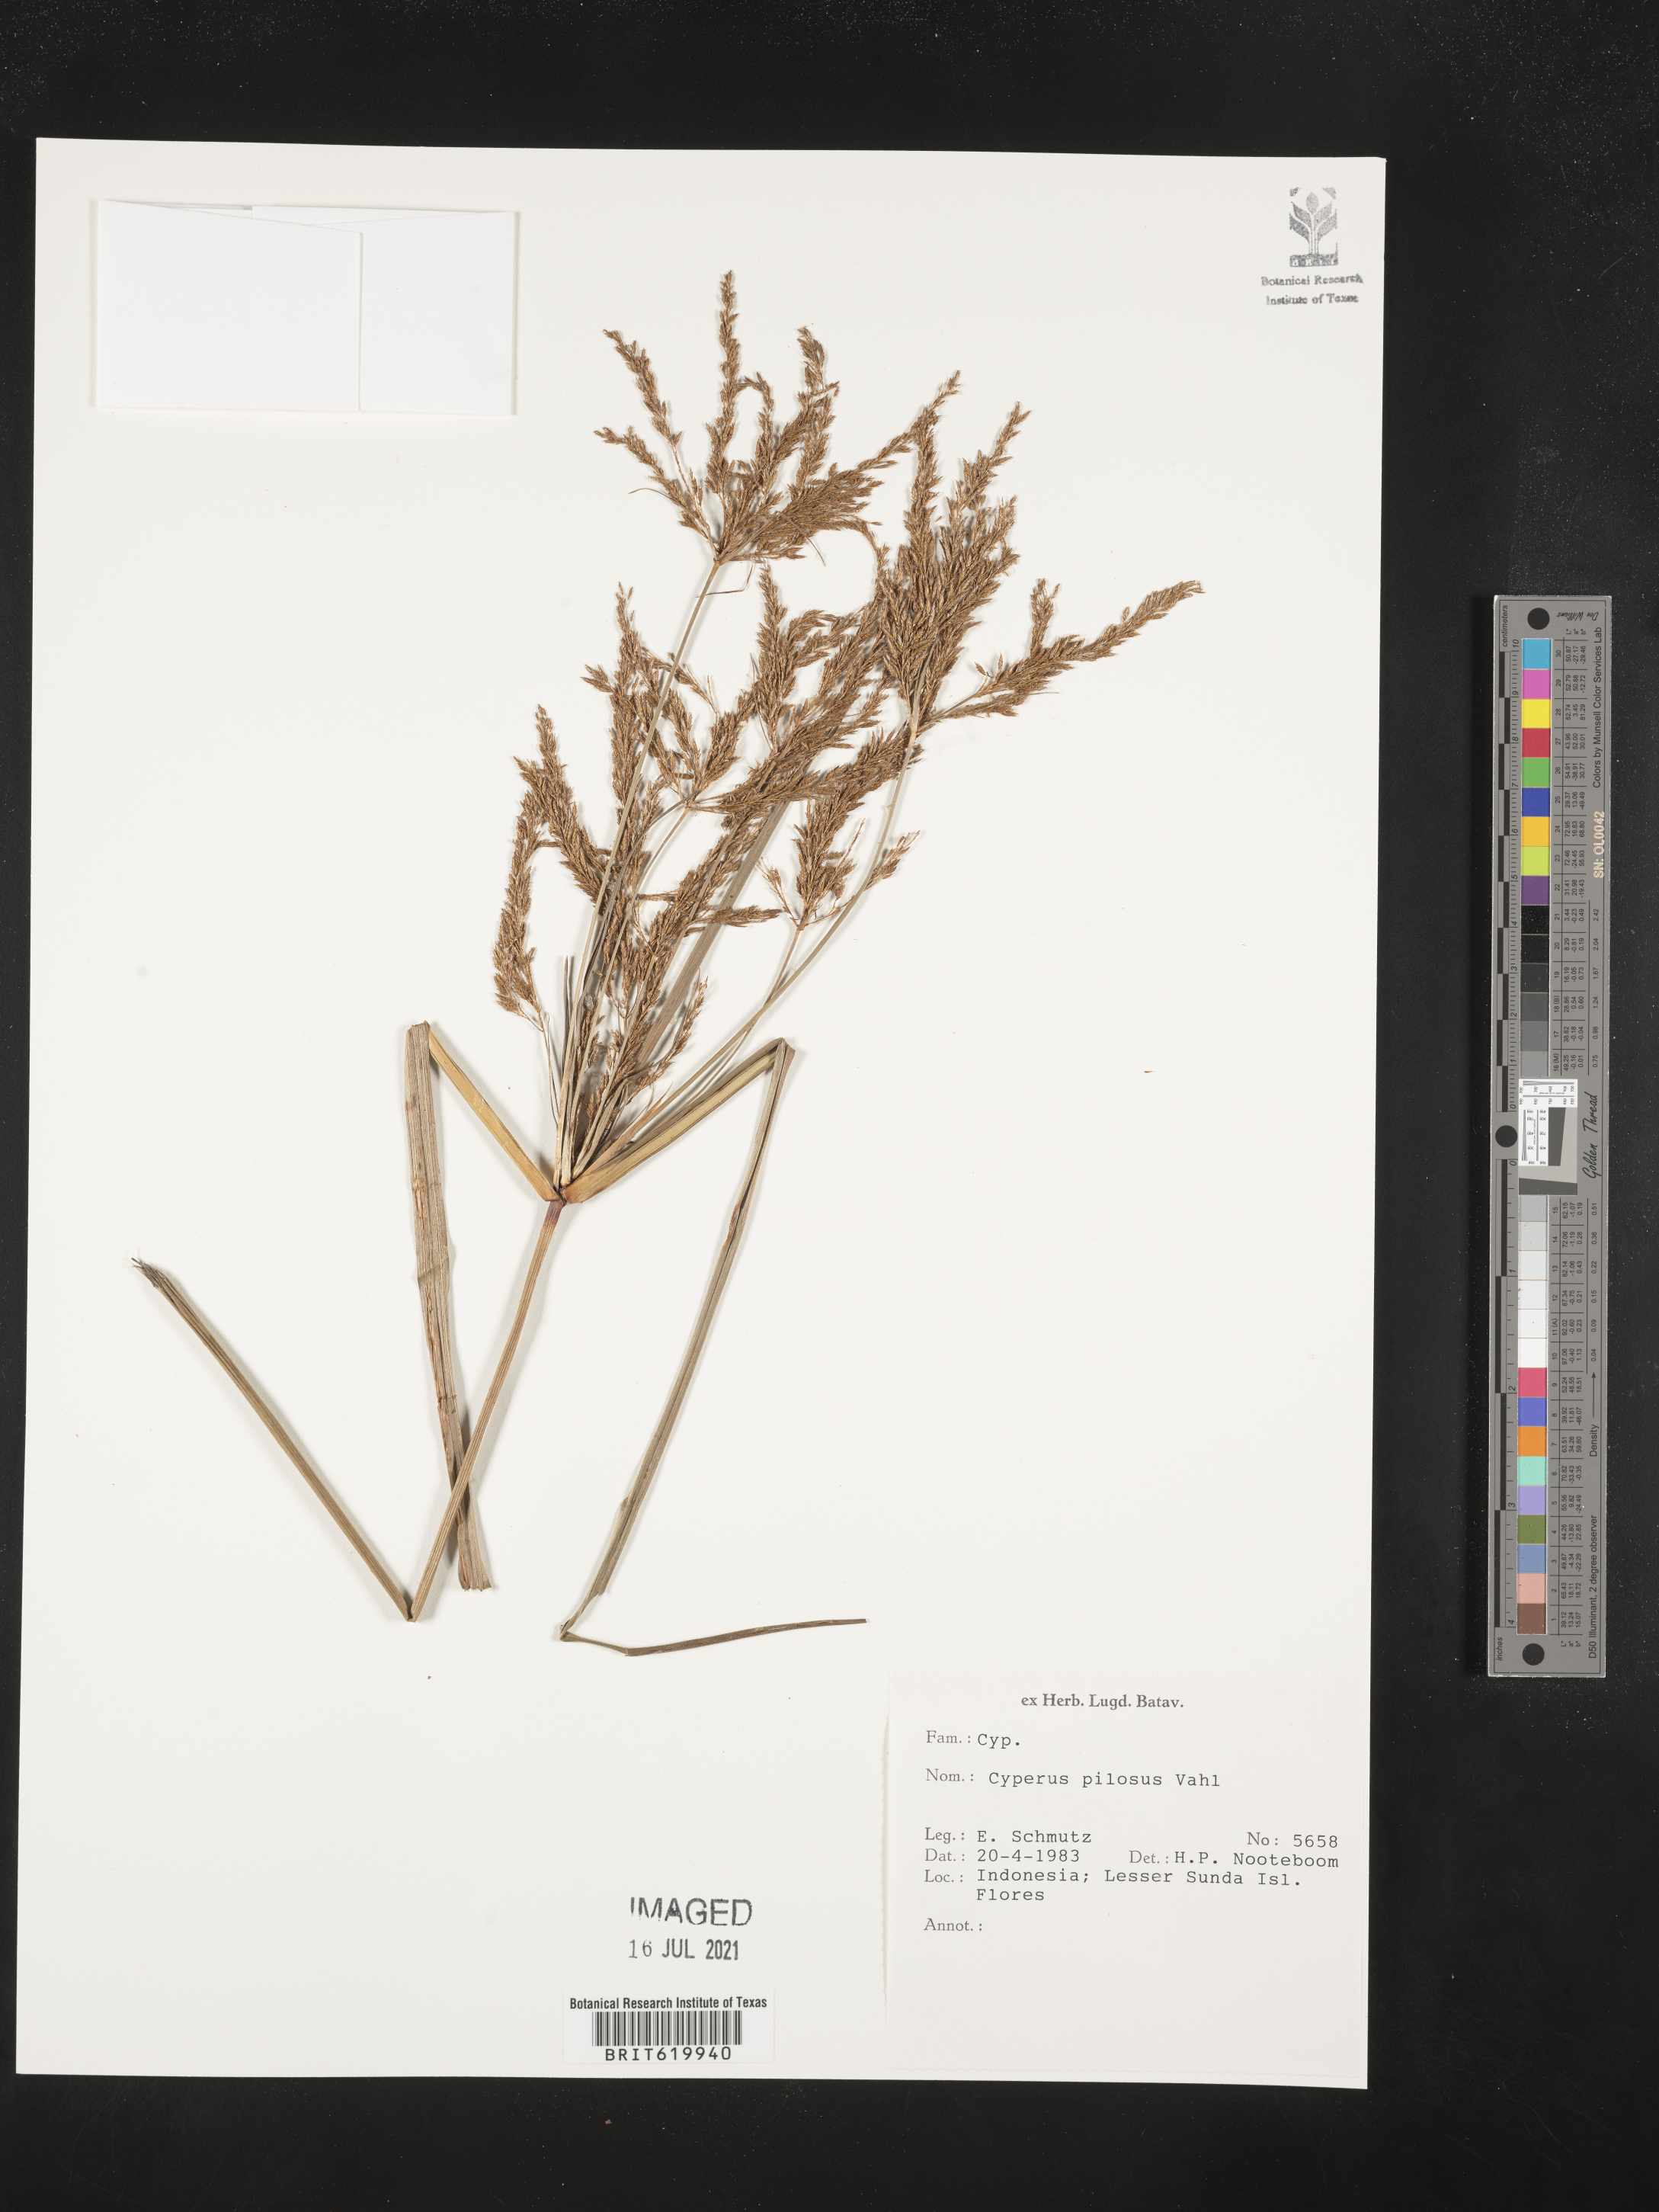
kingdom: Plantae
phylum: Tracheophyta
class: Liliopsida
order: Poales
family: Cyperaceae
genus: Cyperus
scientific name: Cyperus pilosus
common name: Fuzzy flatsedge
